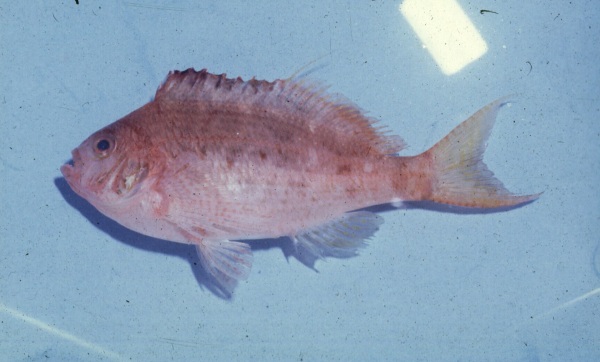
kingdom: Animalia
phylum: Chordata
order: Perciformes
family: Cirrhitidae
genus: Cyprinocirrhites
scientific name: Cyprinocirrhites polyactis
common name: Swallowtail hawkfish
